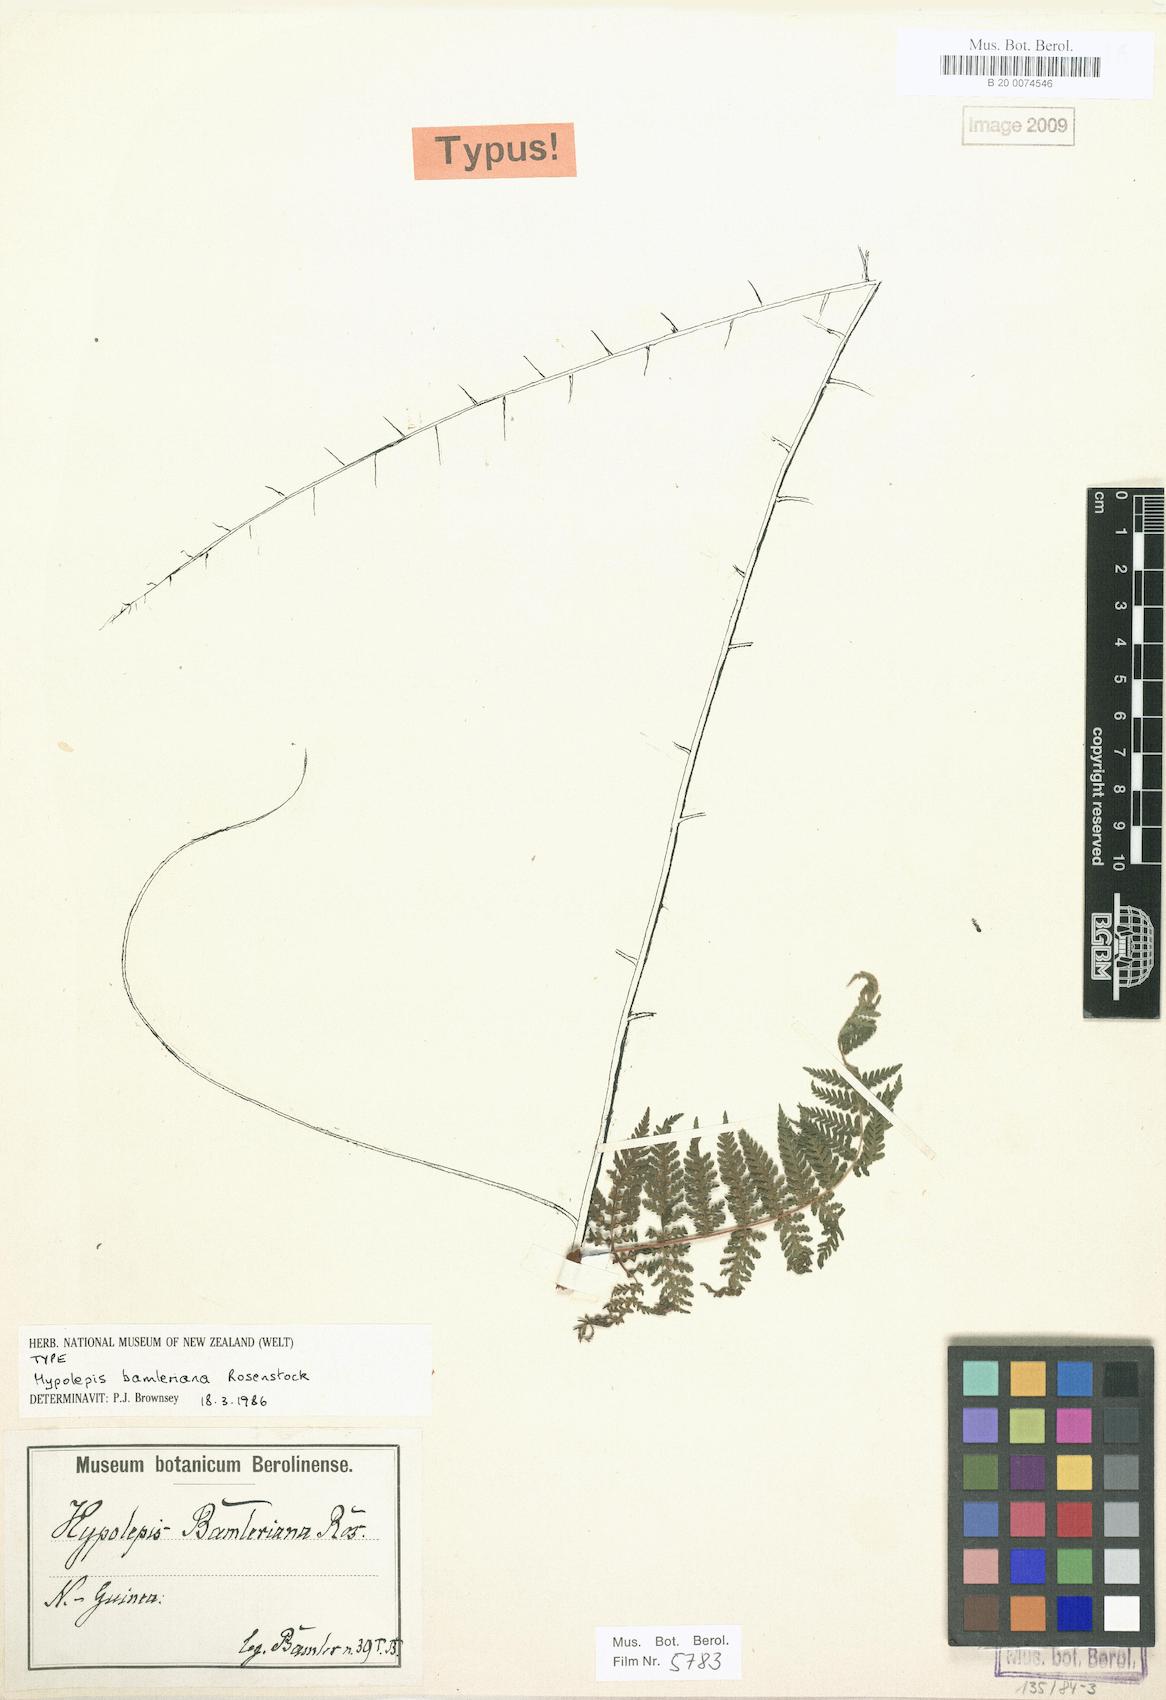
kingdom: Plantae
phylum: Tracheophyta
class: Polypodiopsida
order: Polypodiales
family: Dennstaedtiaceae
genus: Hypolepis
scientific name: Hypolepis bamleriana
